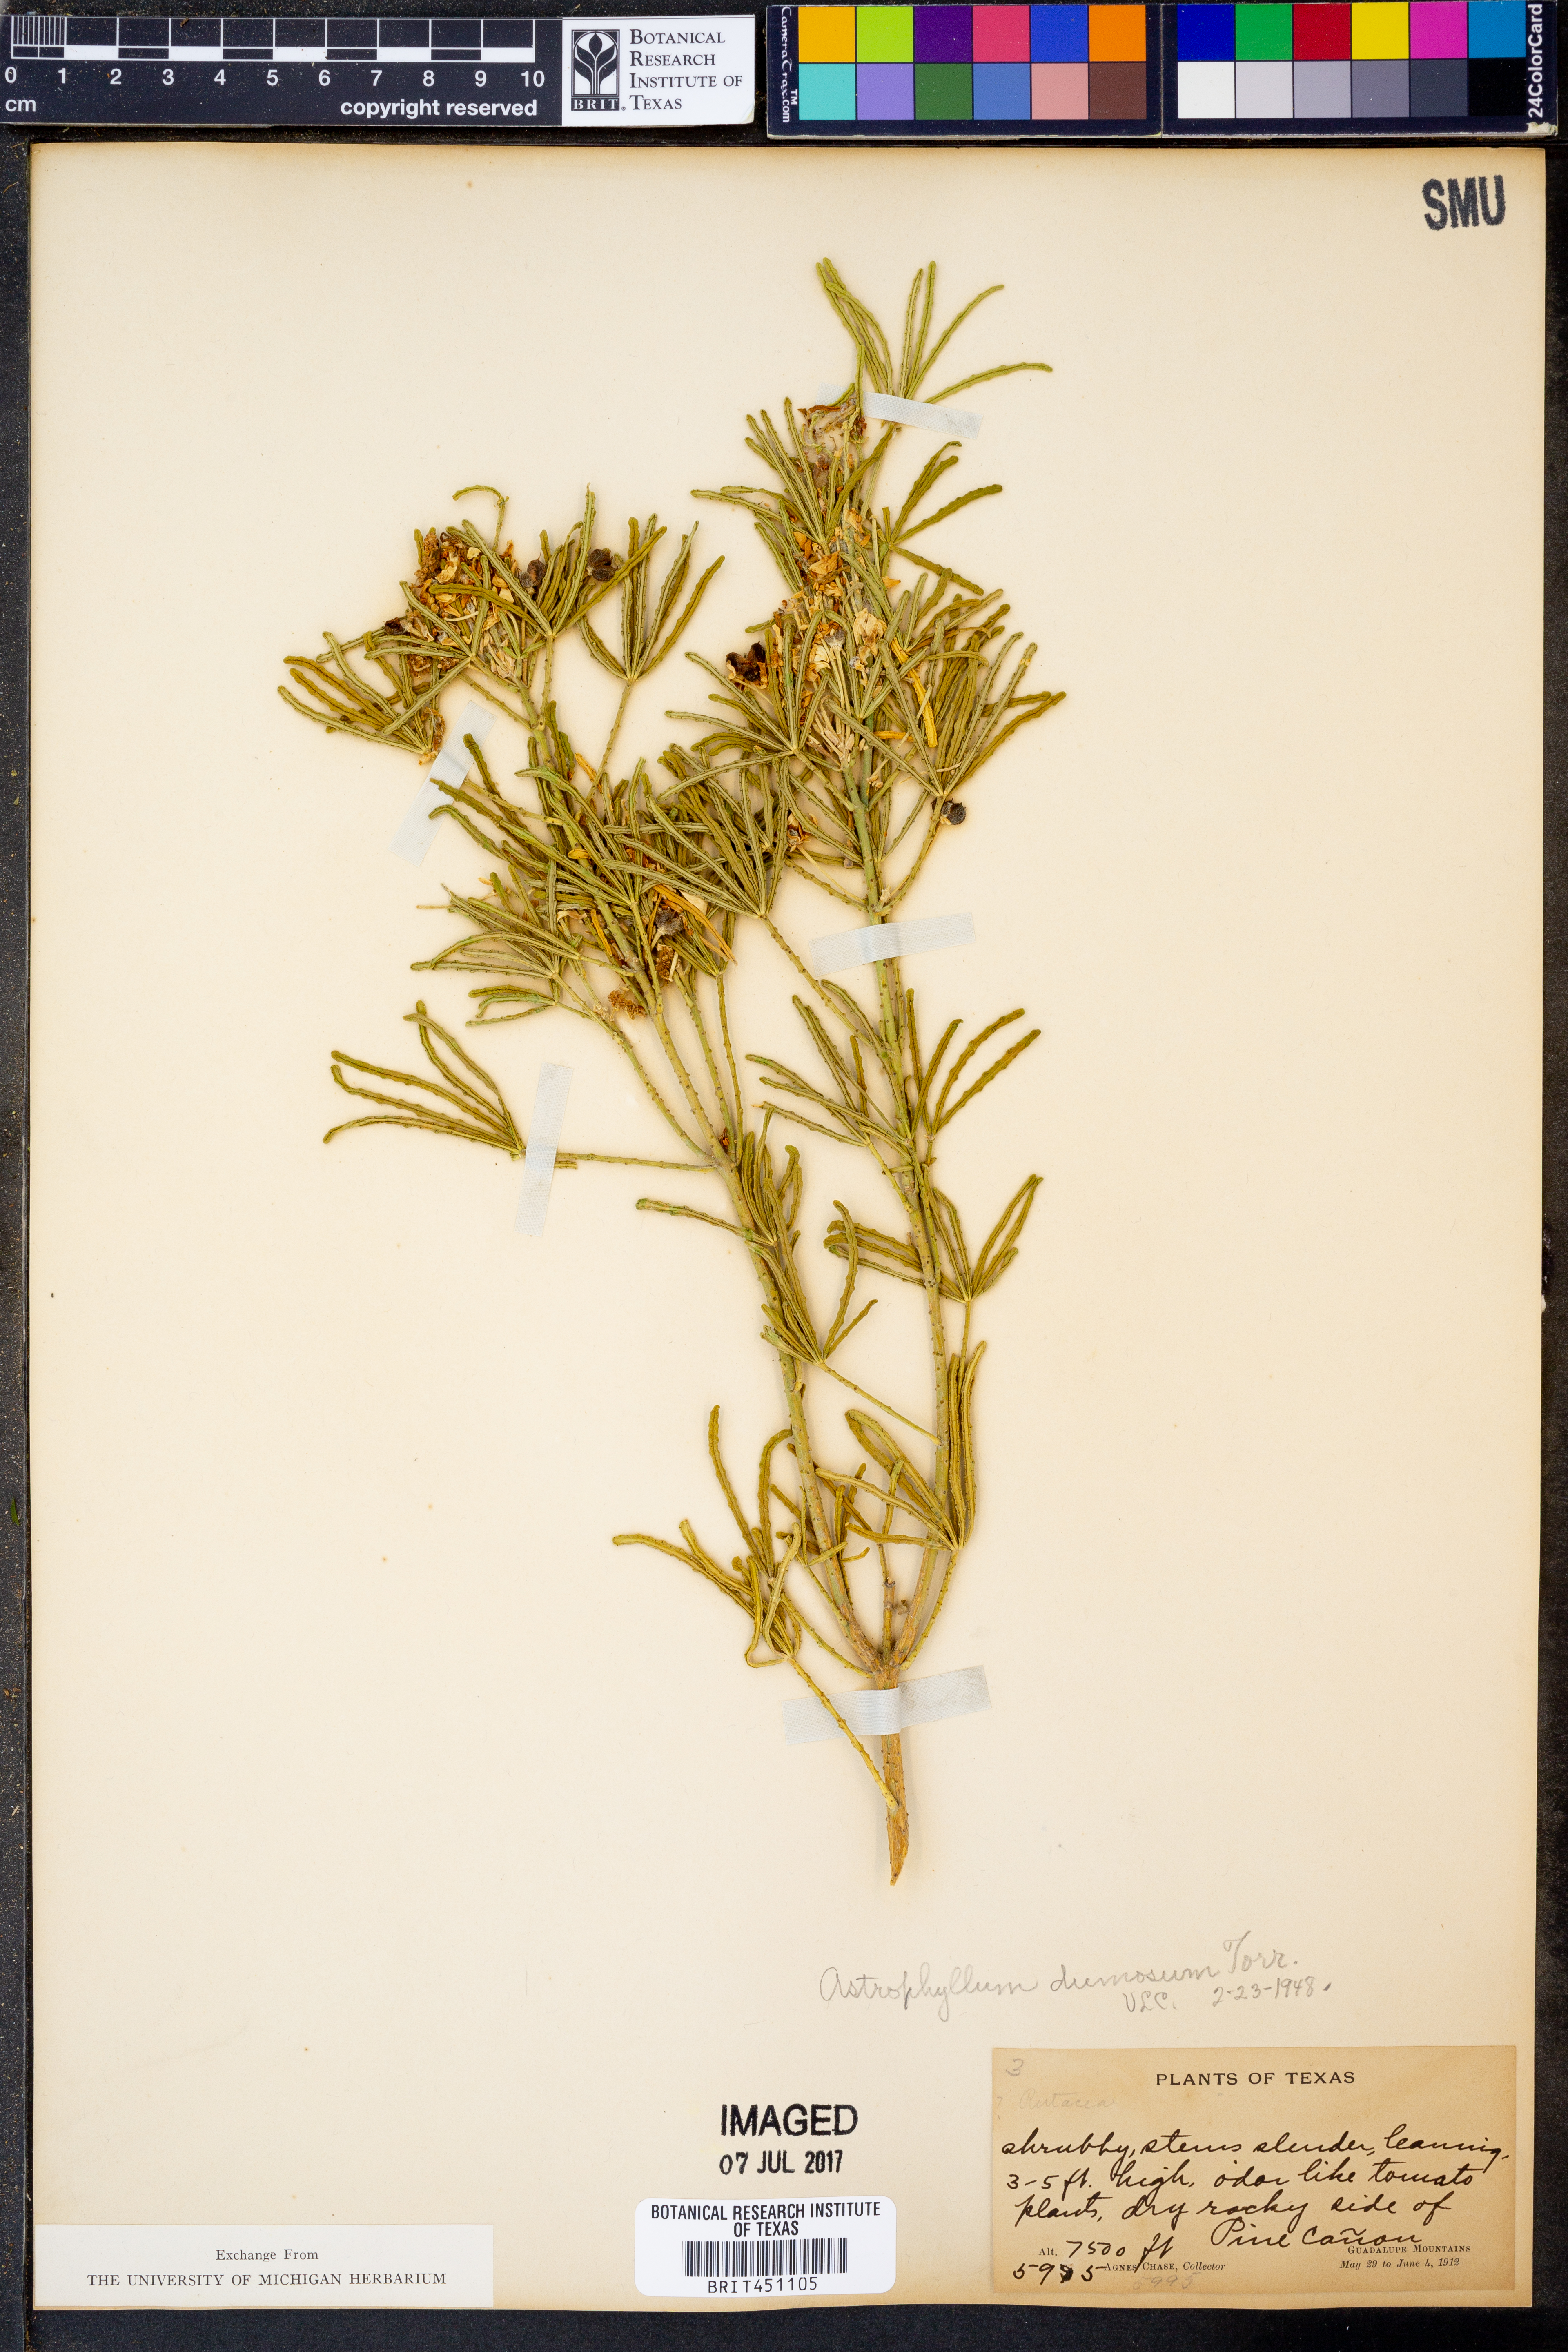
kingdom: Plantae
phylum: Tracheophyta
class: Magnoliopsida
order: Sapindales
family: Rutaceae
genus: Choisya
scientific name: Choisya dumosa
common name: Mexican-orange
